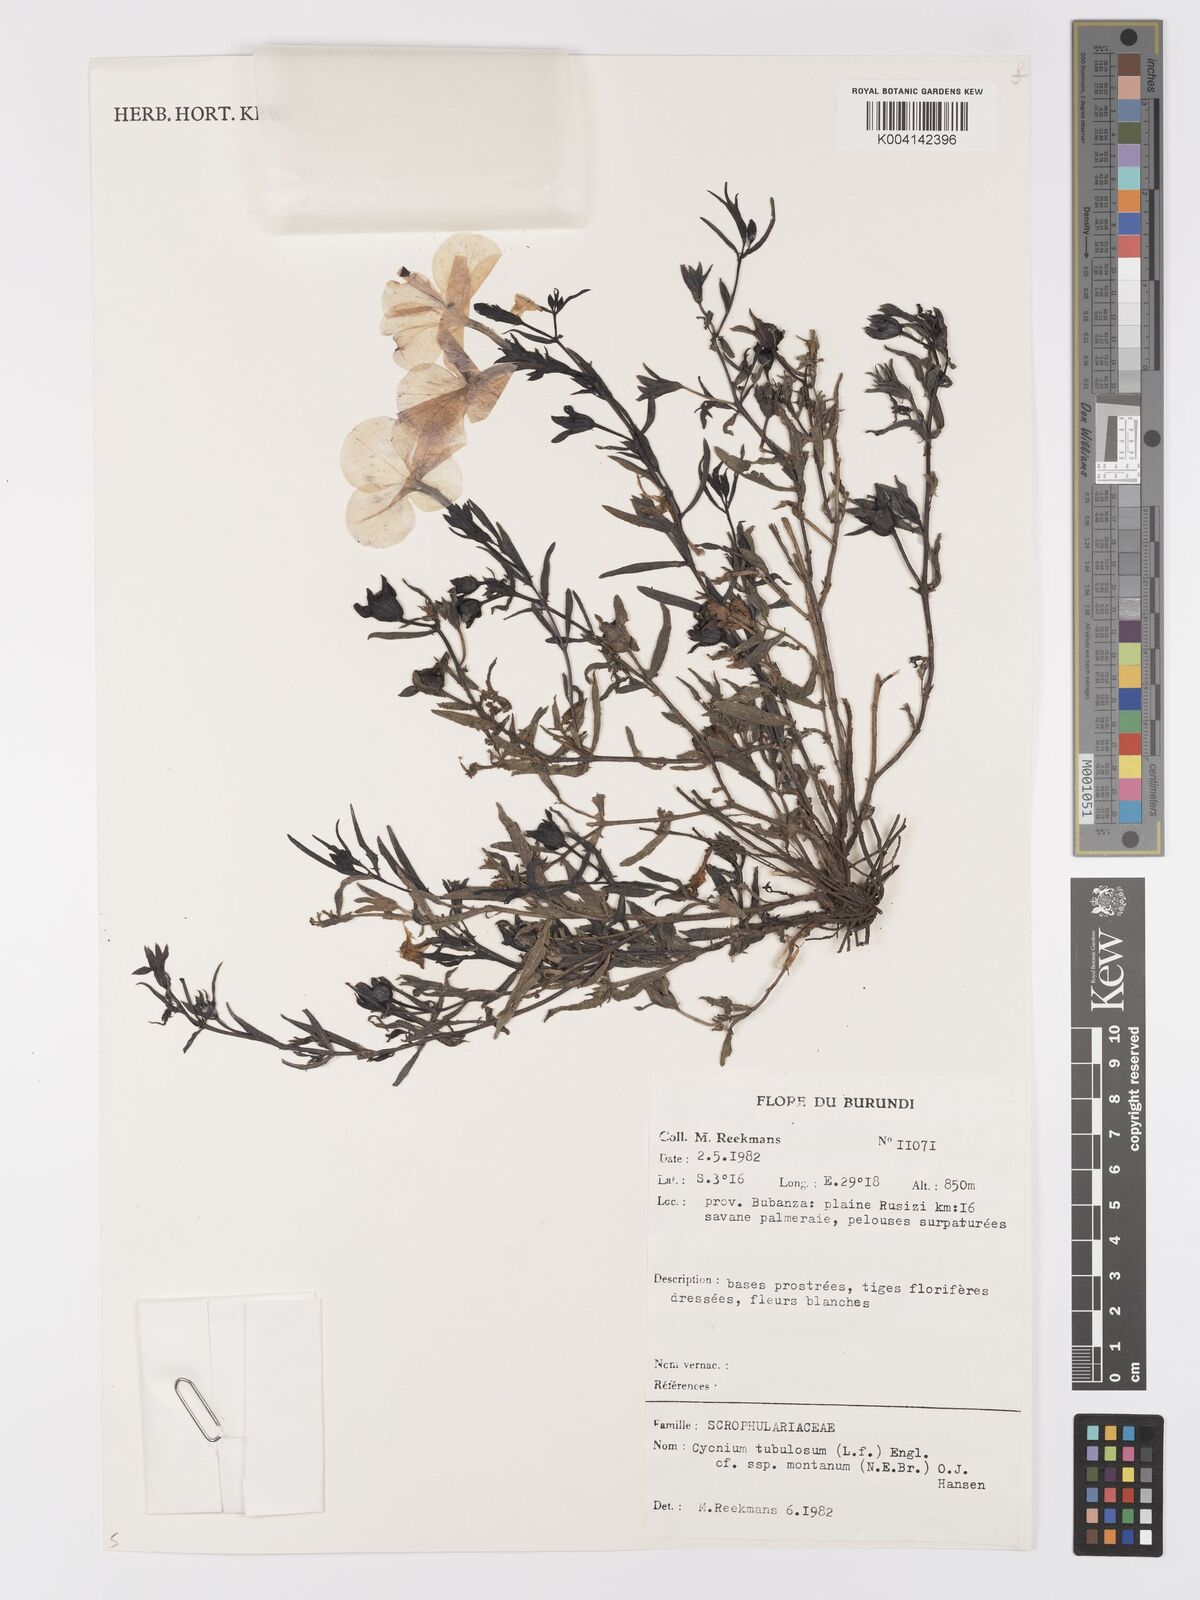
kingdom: Plantae
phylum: Tracheophyta
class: Magnoliopsida
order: Lamiales
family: Orobanchaceae
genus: Cycnium
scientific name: Cycnium tubulosum
